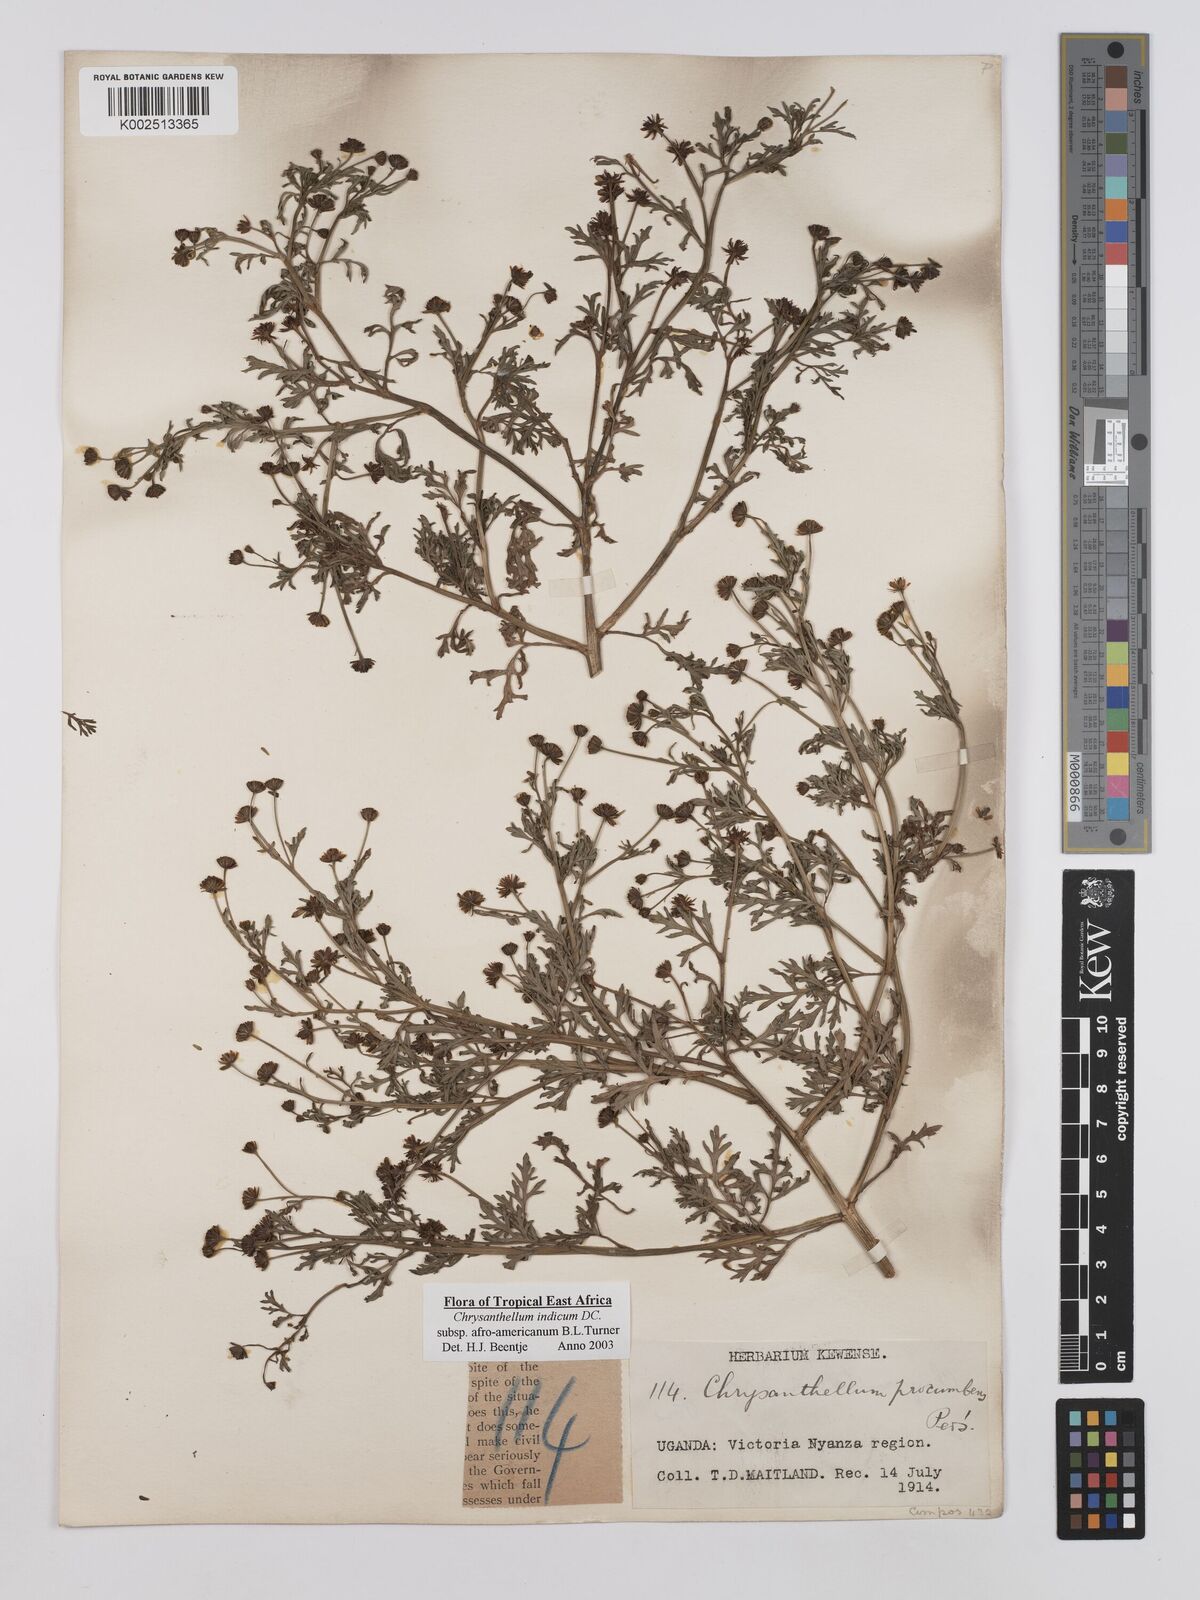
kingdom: Plantae
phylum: Tracheophyta
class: Magnoliopsida
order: Asterales
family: Asteraceae
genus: Chrysanthellum
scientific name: Chrysanthellum indicum
